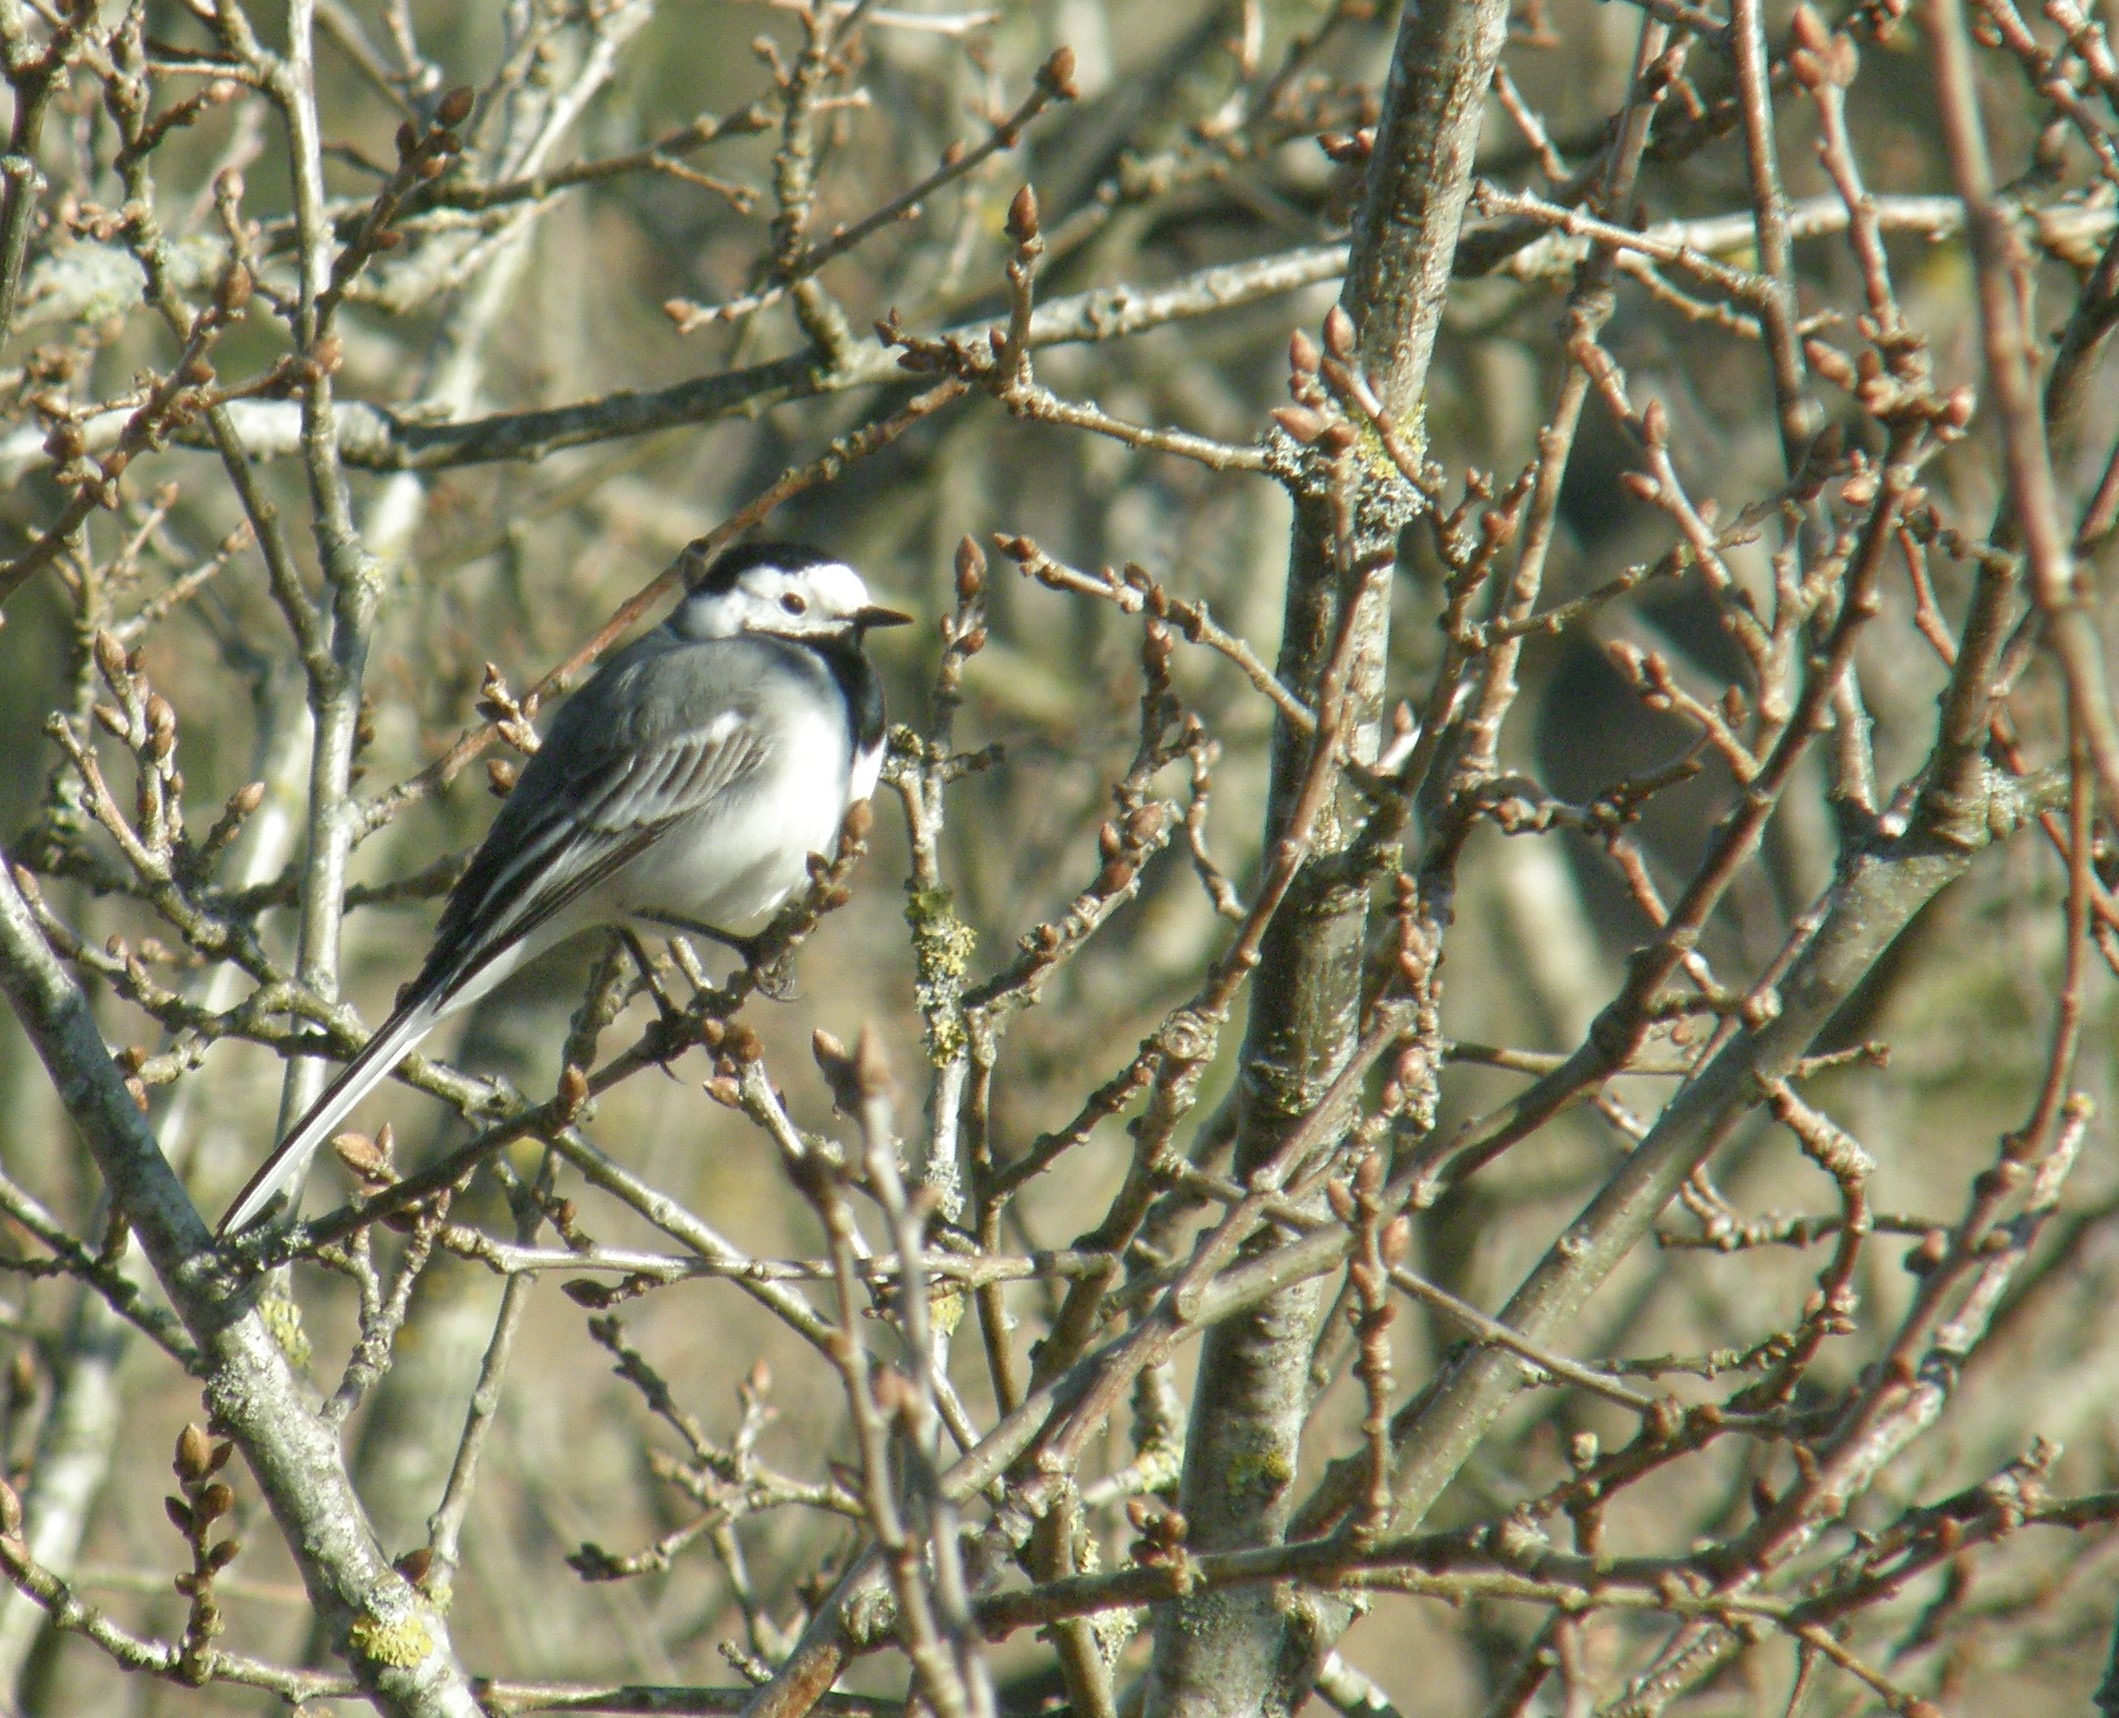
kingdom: Animalia
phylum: Chordata
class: Aves
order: Passeriformes
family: Motacillidae
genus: Motacilla
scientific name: Motacilla alba
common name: Hvid vipstjert
